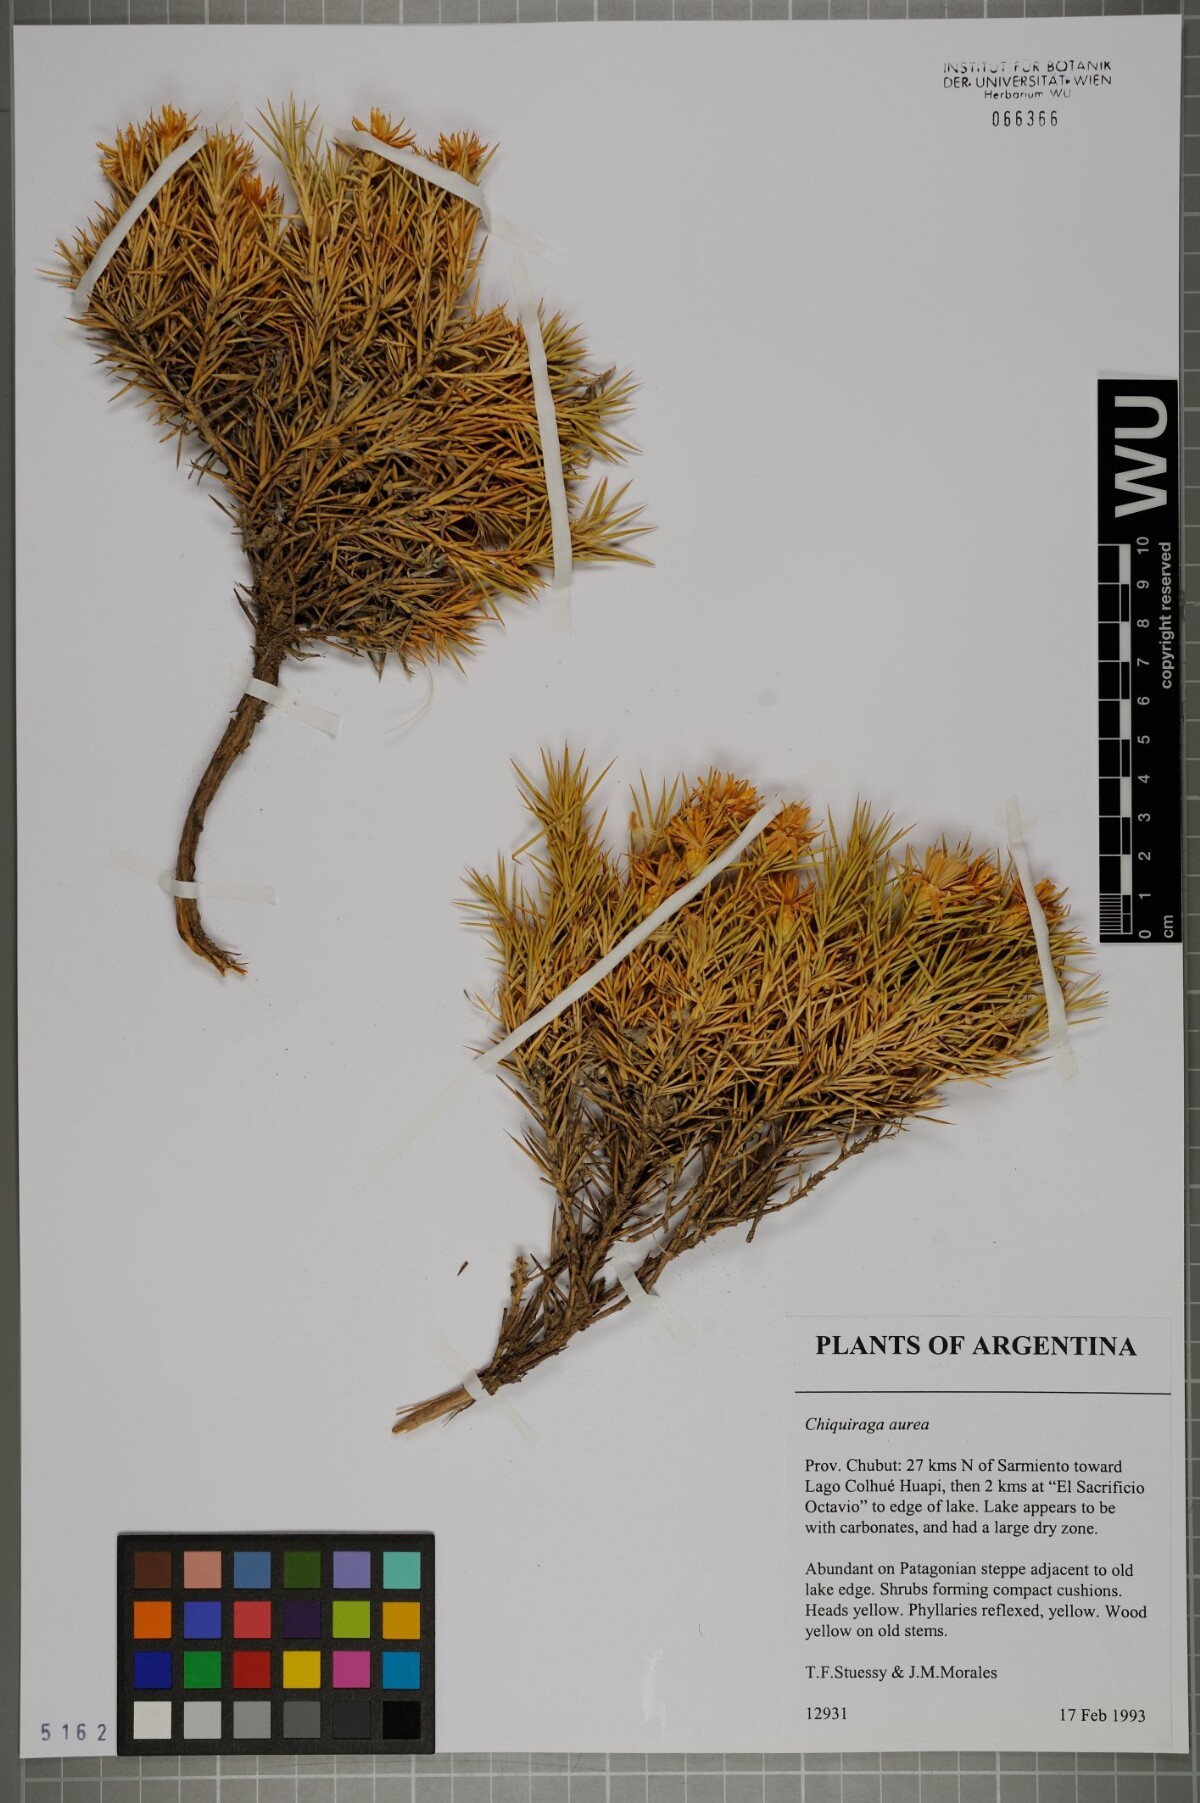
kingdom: Plantae
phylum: Tracheophyta
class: Magnoliopsida
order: Asterales
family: Asteraceae
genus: Chuquiraga
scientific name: Chuquiraga aurea
